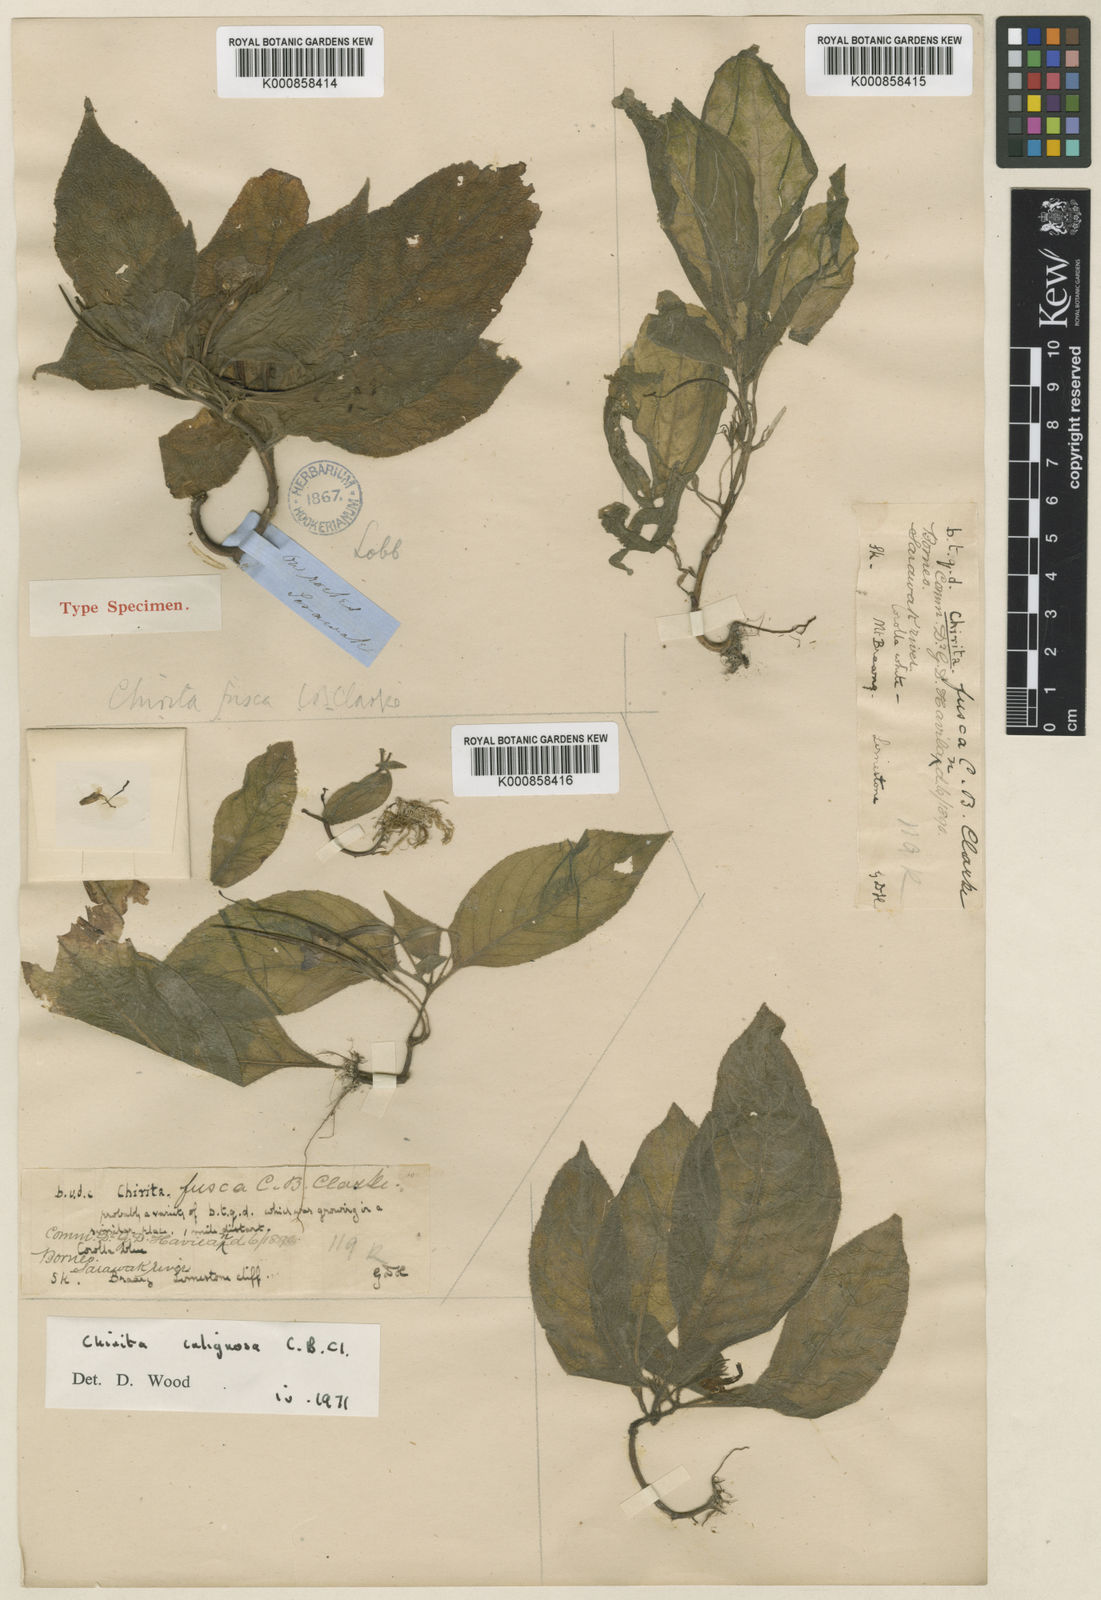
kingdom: Plantae
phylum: Tracheophyta
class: Magnoliopsida
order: Lamiales
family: Gesneriaceae
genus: Microchirita
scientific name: Microchirita caliginosa
